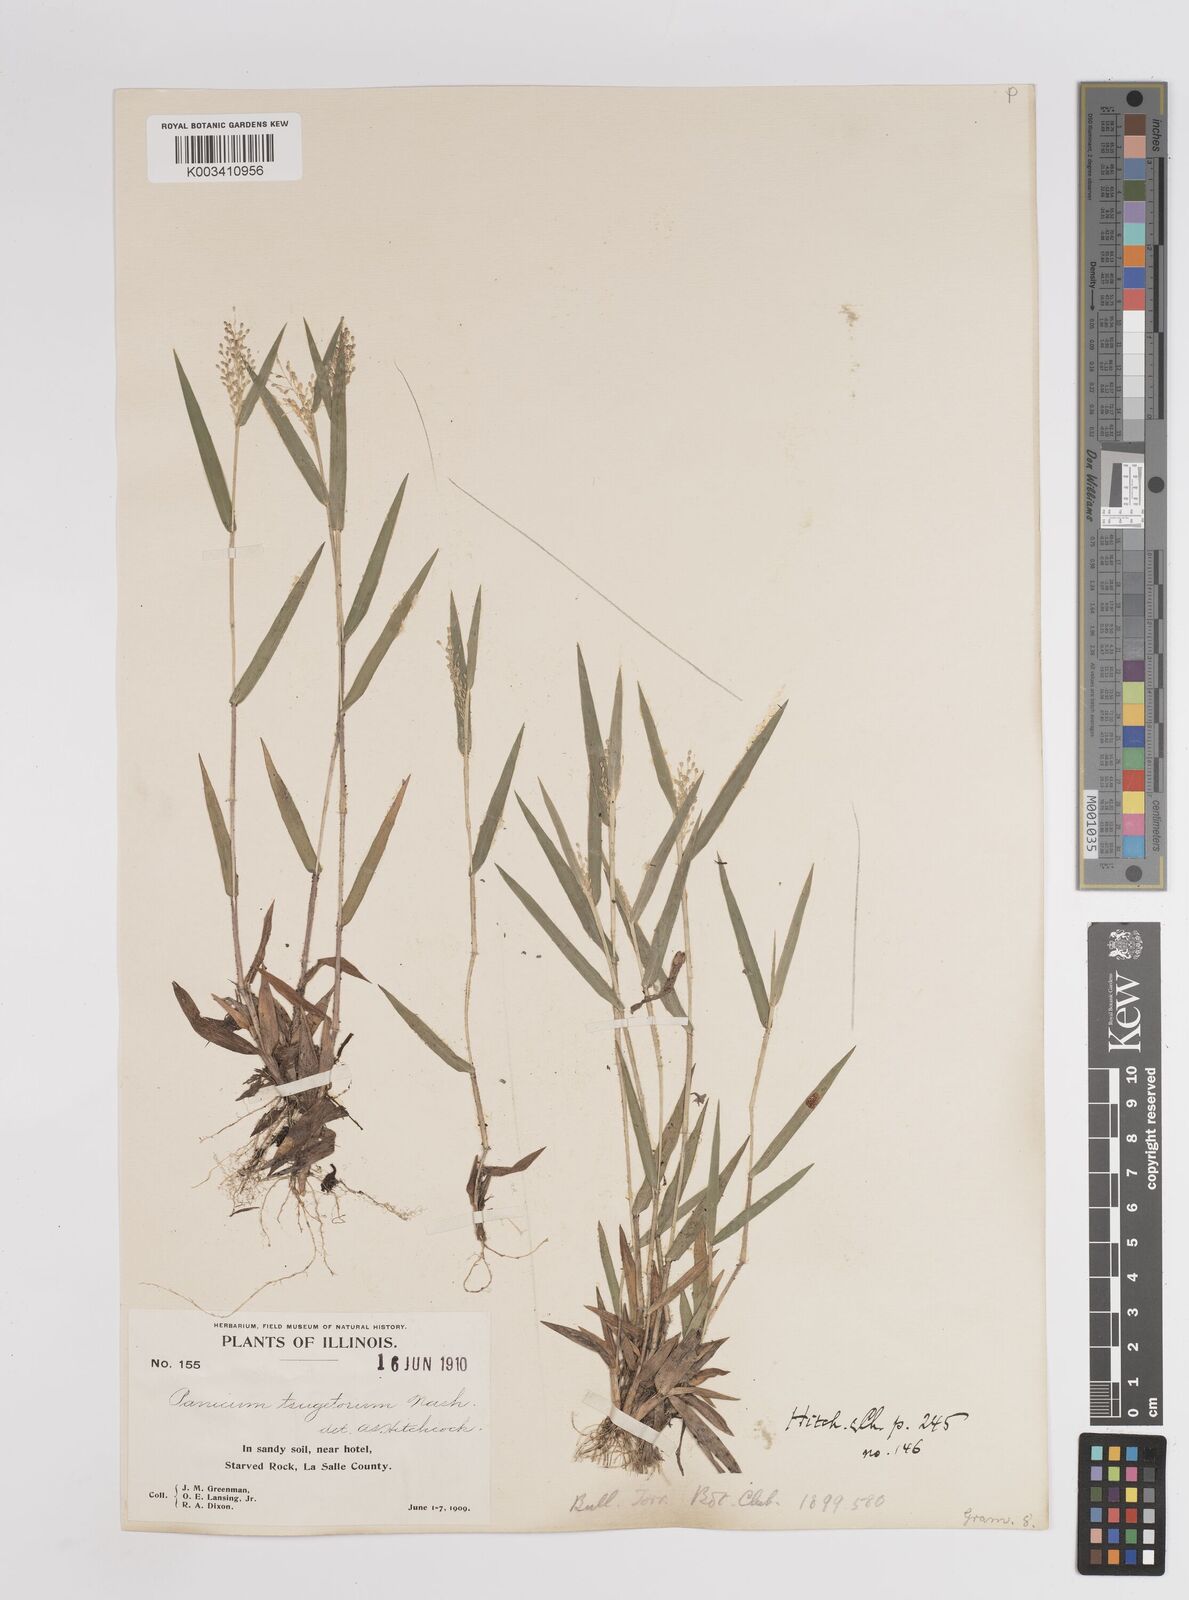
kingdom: Plantae
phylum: Tracheophyta
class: Liliopsida
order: Poales
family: Poaceae
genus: Dichanthelium
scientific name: Dichanthelium columbianum
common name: Hemlock panic grass
